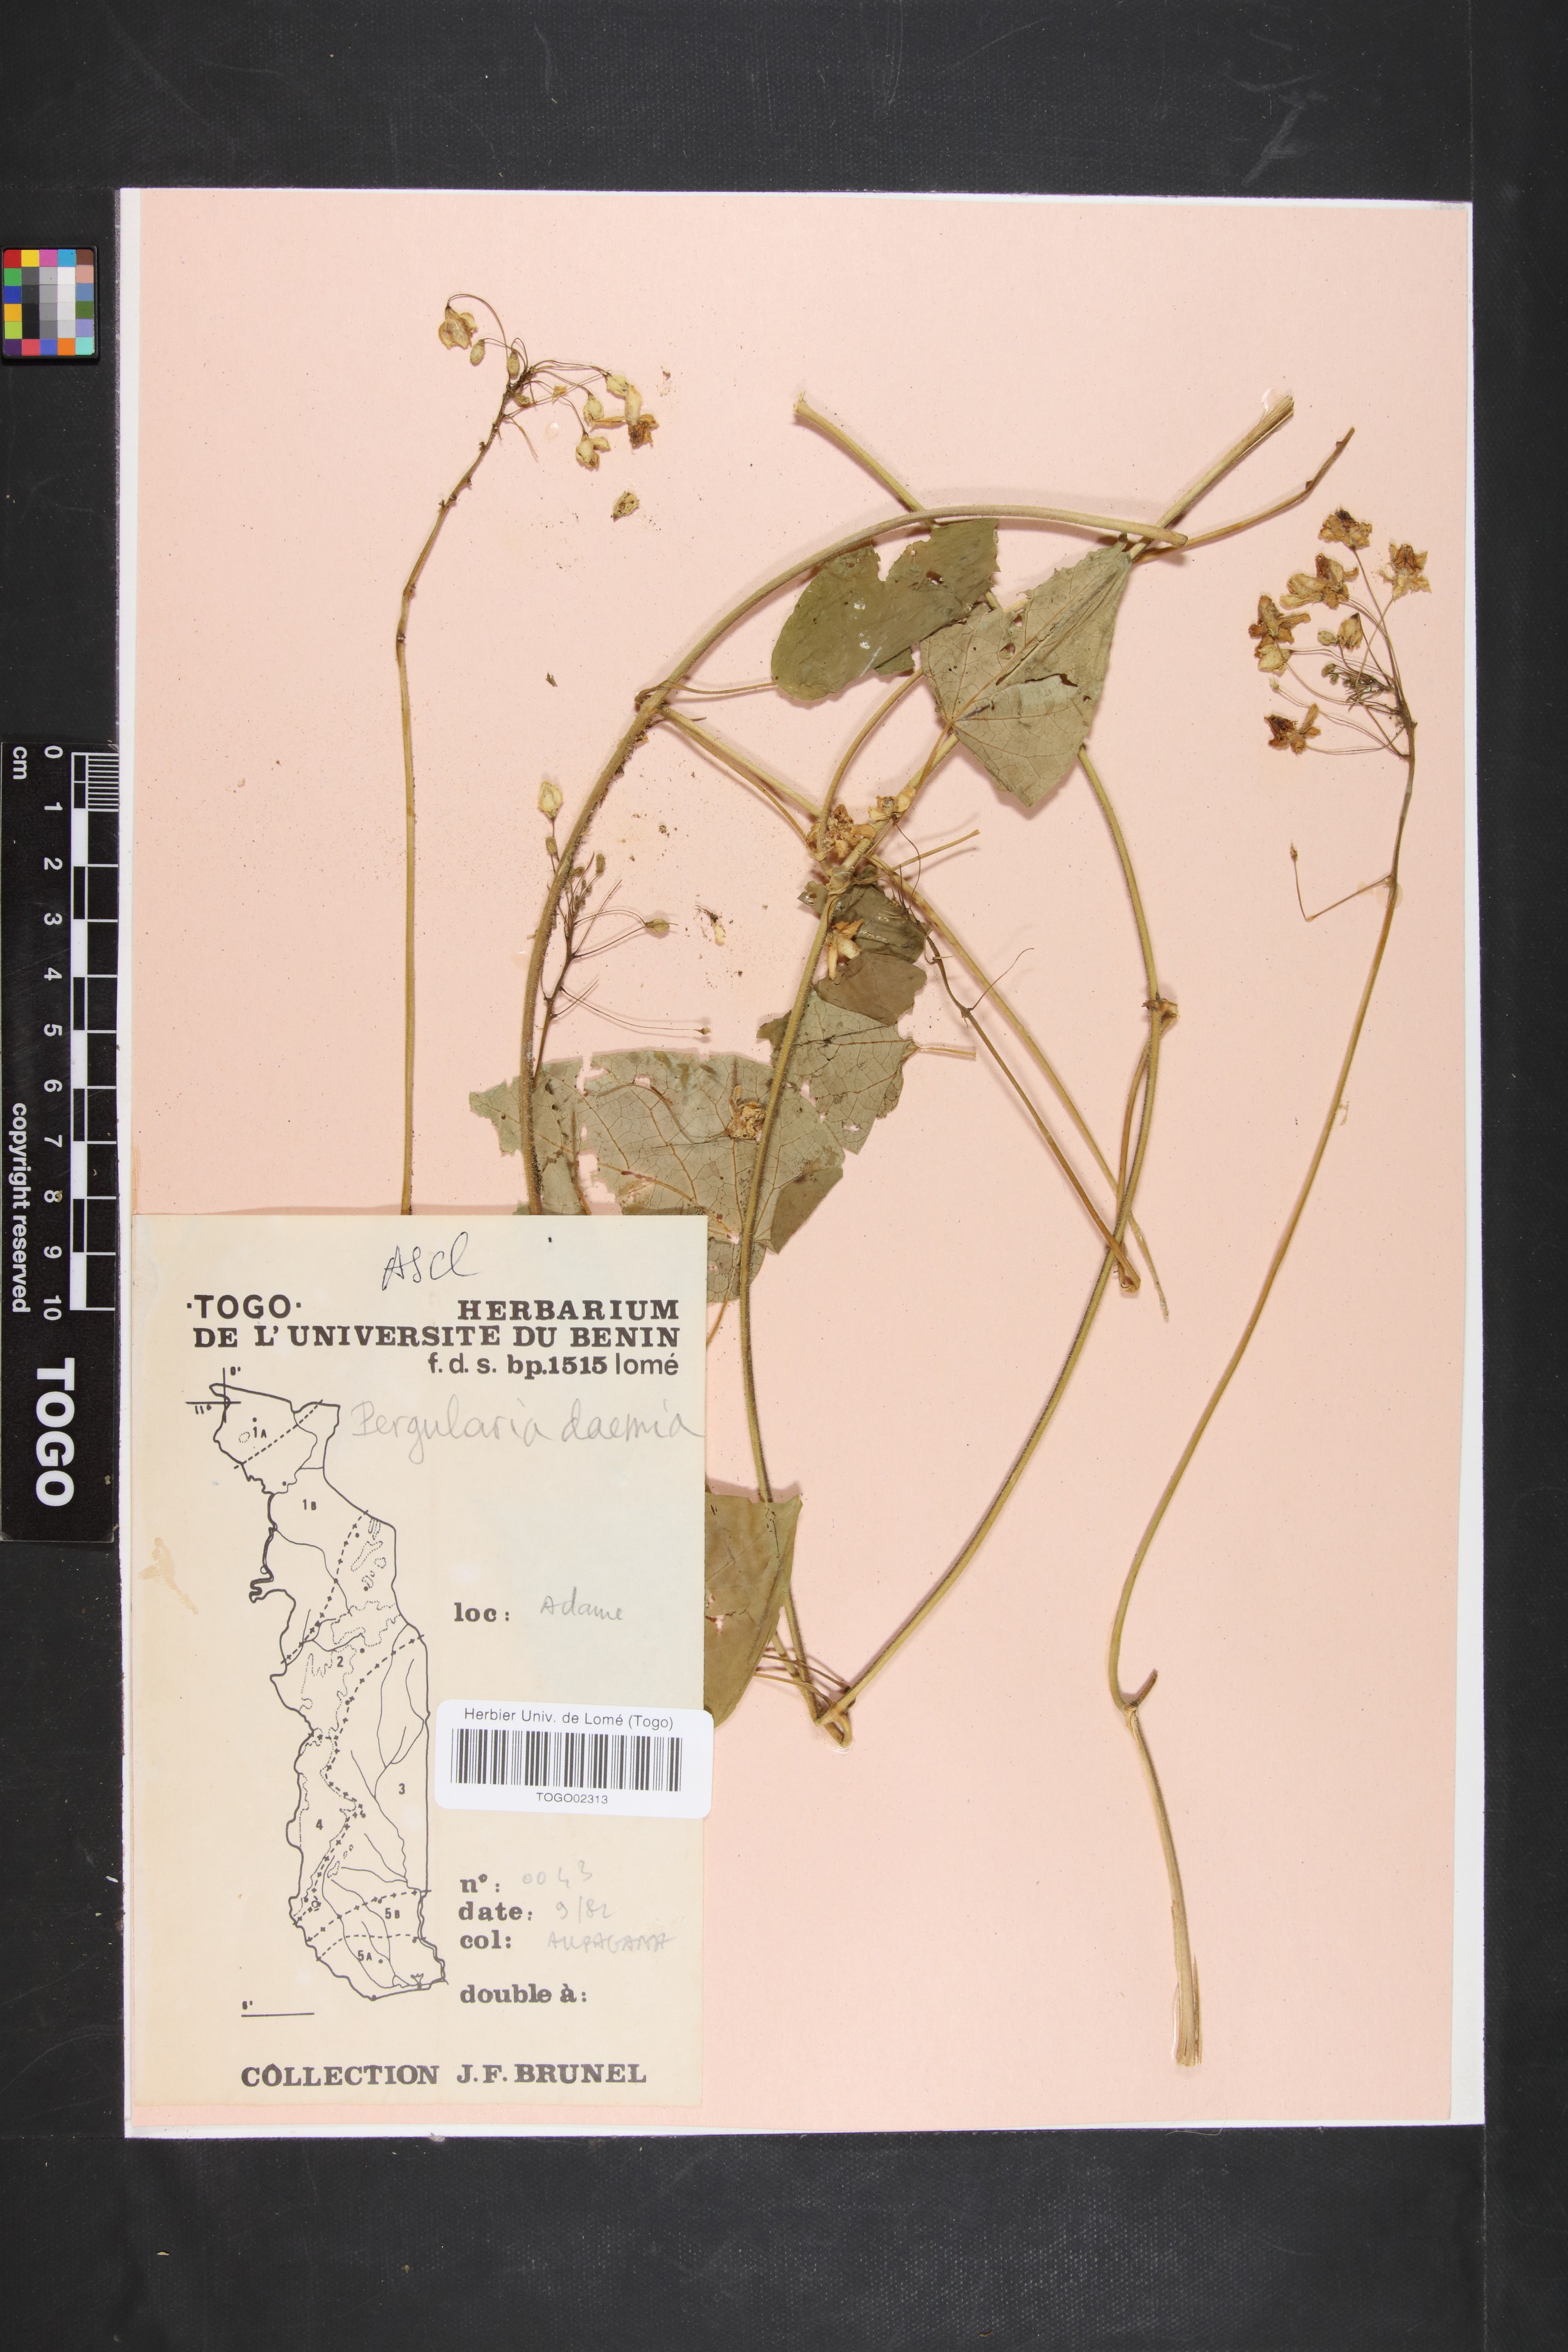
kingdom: Plantae
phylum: Tracheophyta
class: Magnoliopsida
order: Gentianales
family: Apocynaceae
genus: Pergularia
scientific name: Pergularia daemia
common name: Trellis-vine
